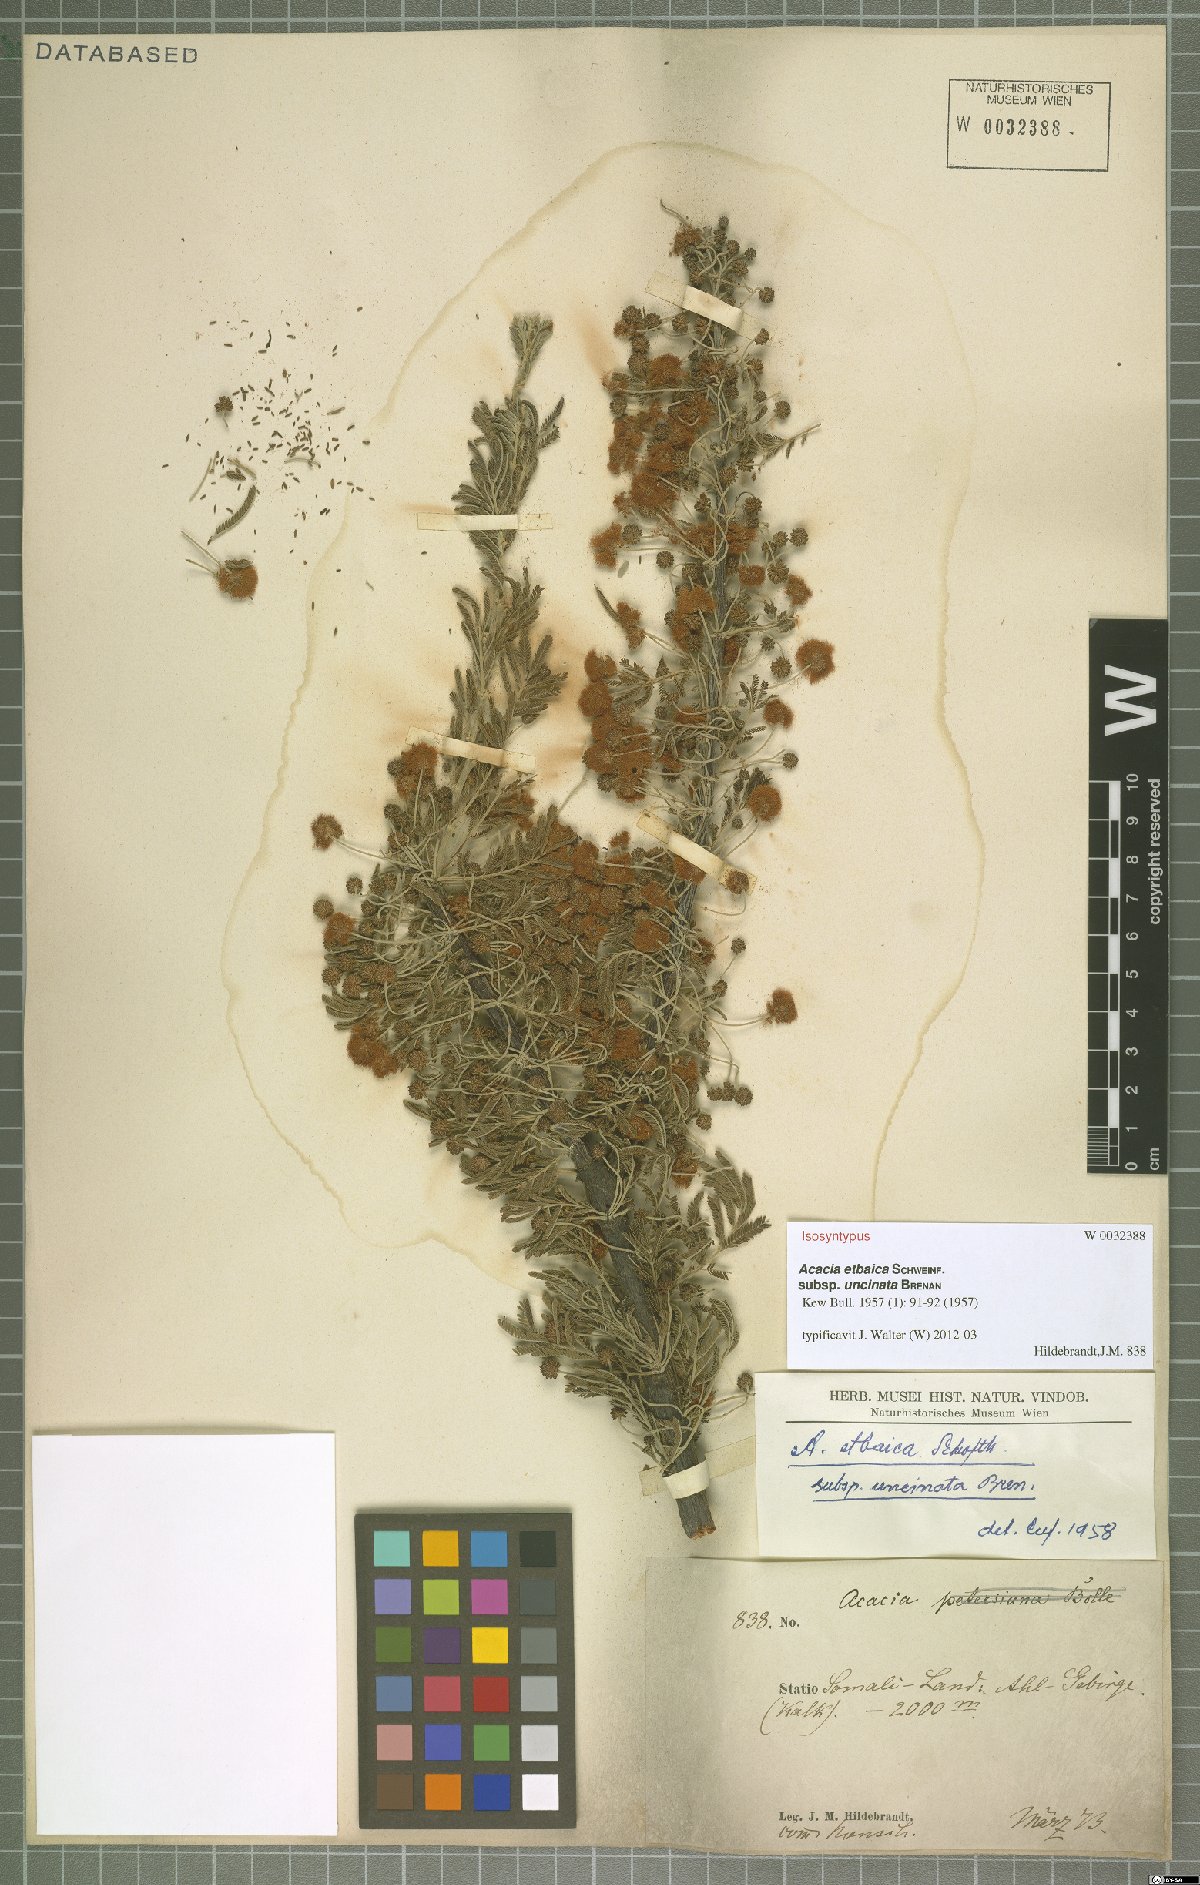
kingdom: Plantae
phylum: Tracheophyta
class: Magnoliopsida
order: Fabales
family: Fabaceae
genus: Vachellia
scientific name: Vachellia etbaica
